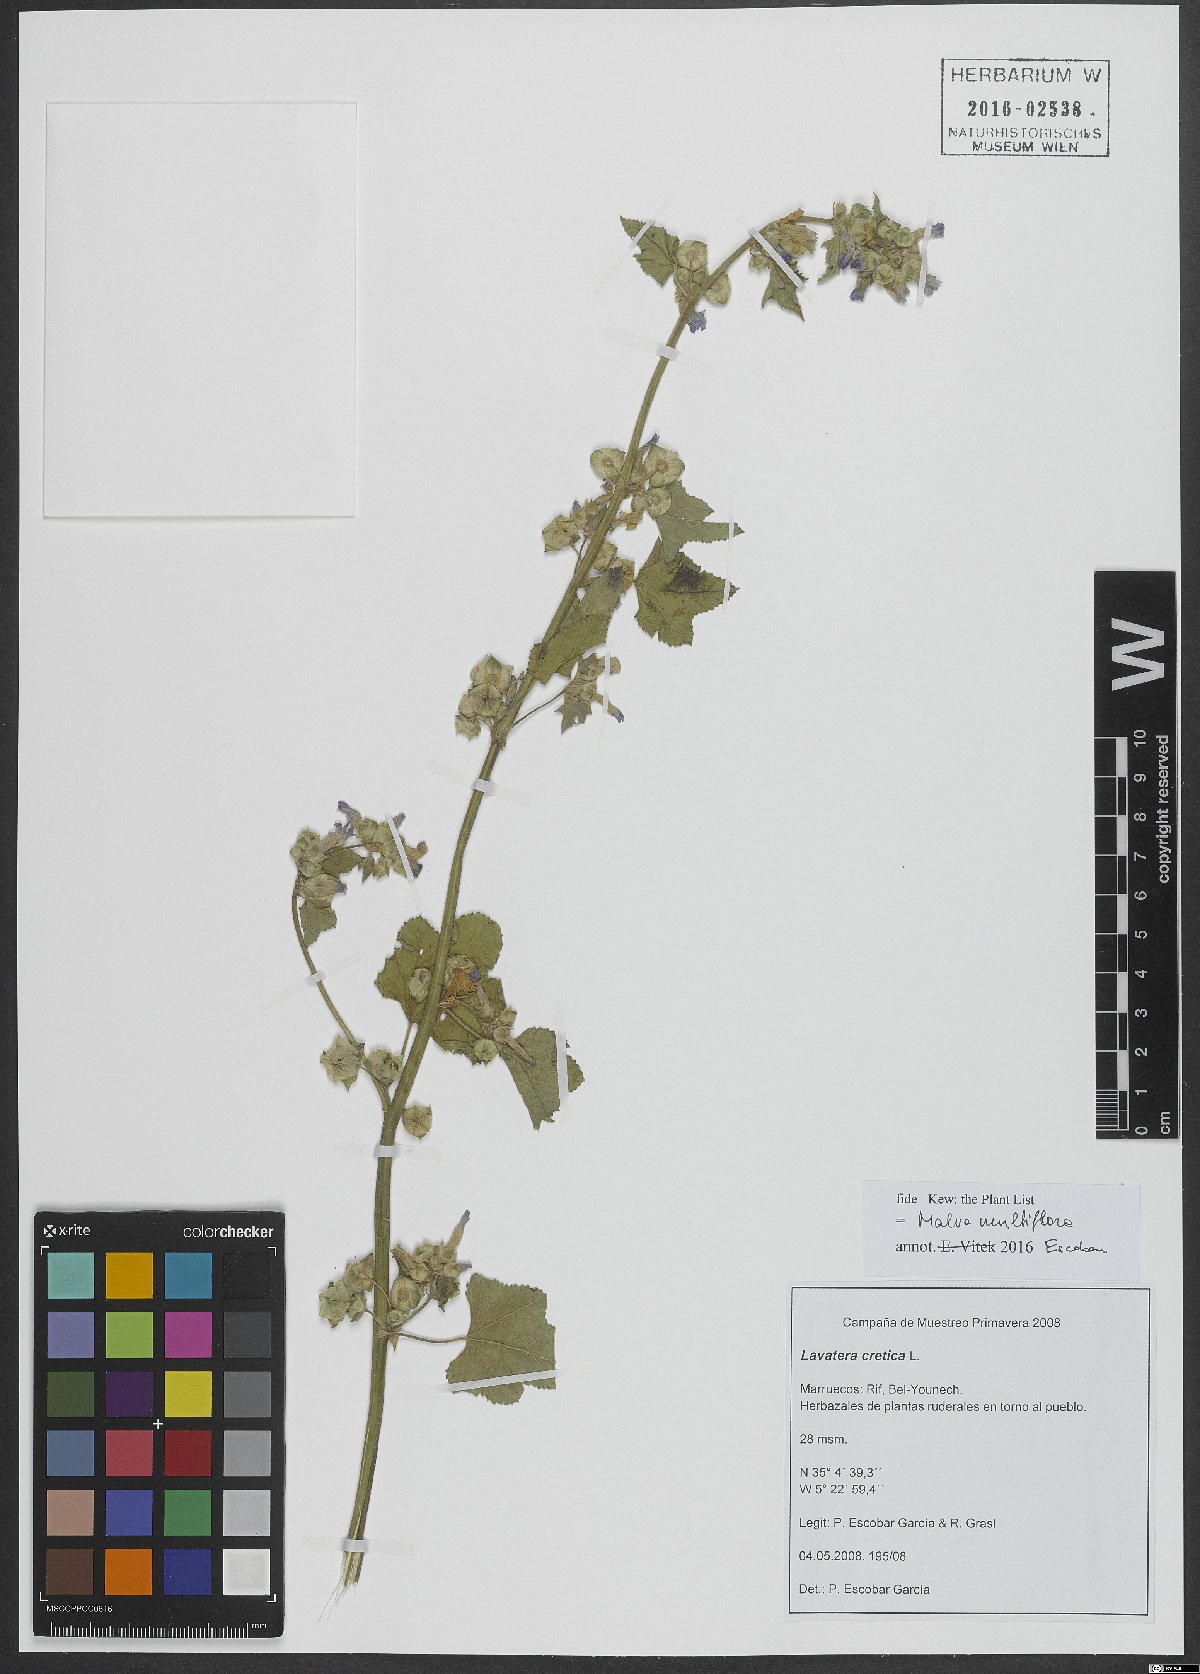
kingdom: Plantae
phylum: Tracheophyta
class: Magnoliopsida
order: Malvales
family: Malvaceae
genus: Malva
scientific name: Malva multiflora
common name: Cheeseweed
